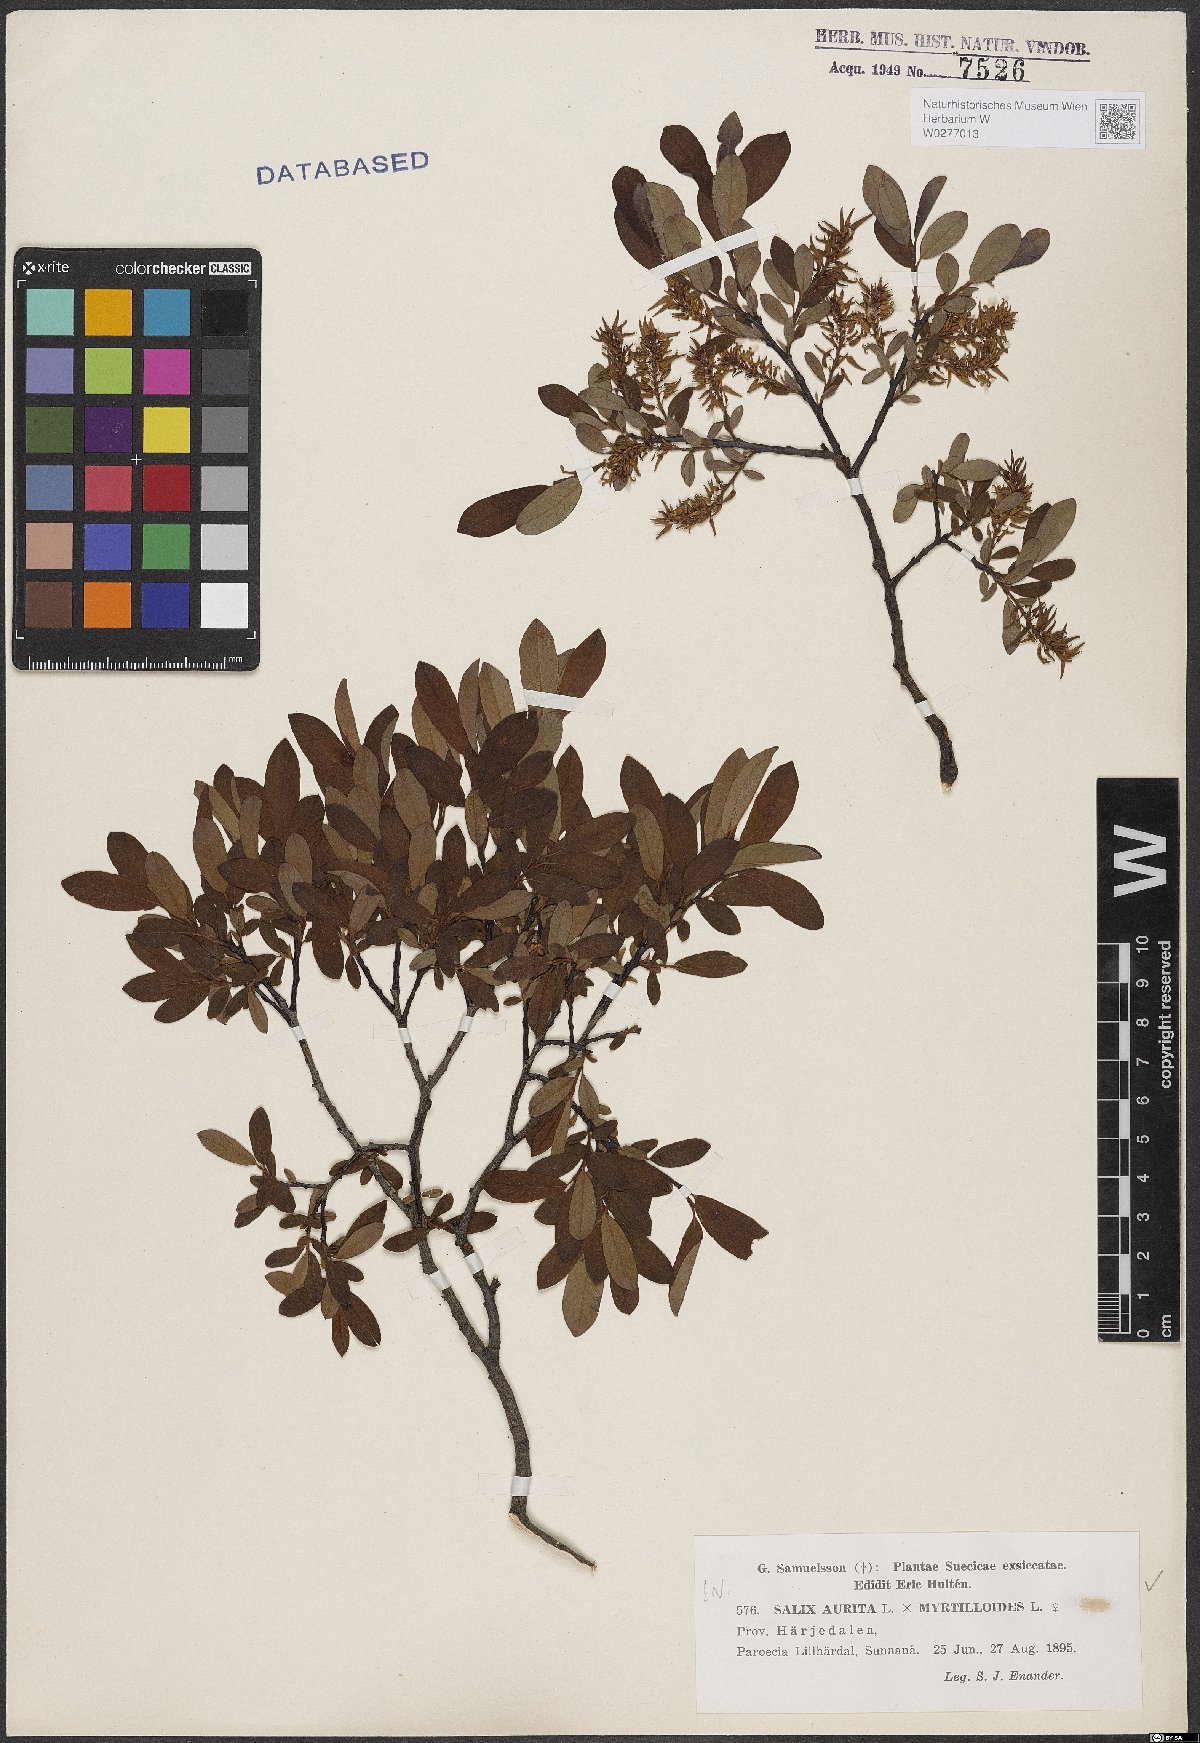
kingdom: Plantae
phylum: Tracheophyta
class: Magnoliopsida
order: Malpighiales
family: Salicaceae
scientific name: Salicaceae
